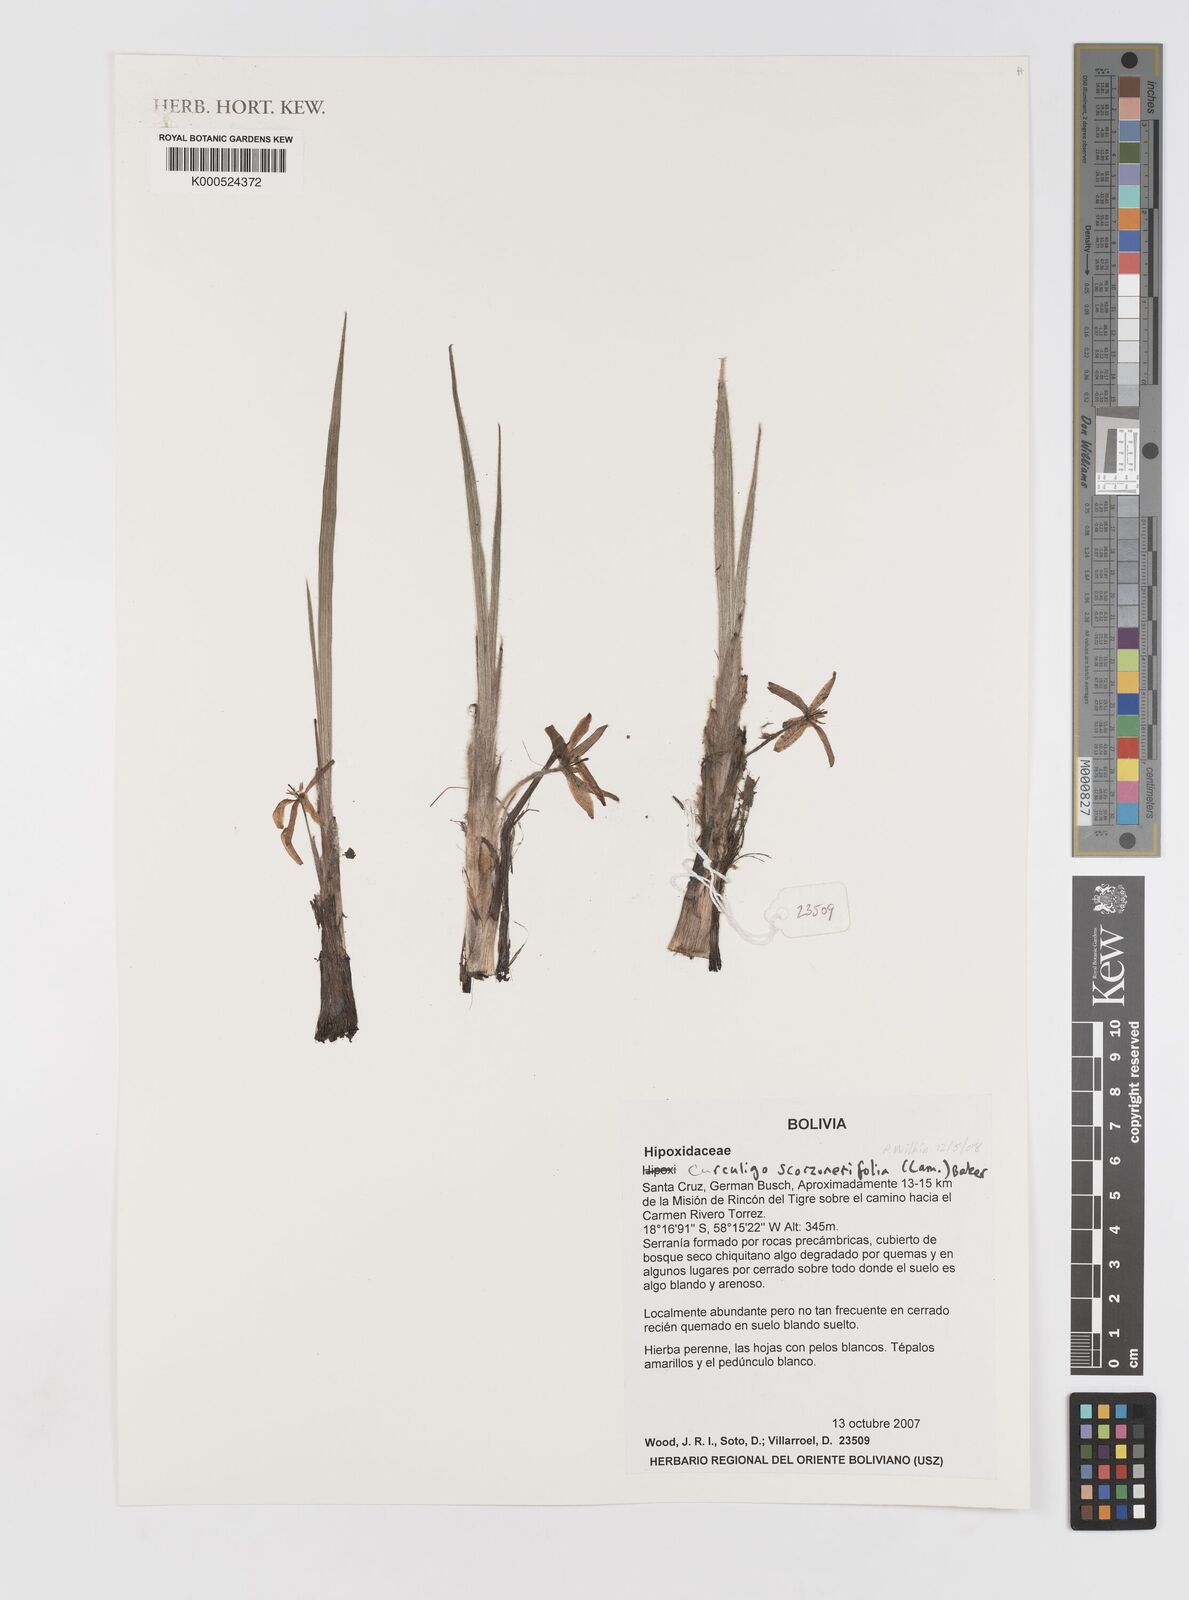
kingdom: Plantae
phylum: Tracheophyta
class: Liliopsida
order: Asparagales
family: Hypoxidaceae
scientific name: Hypoxidaceae
